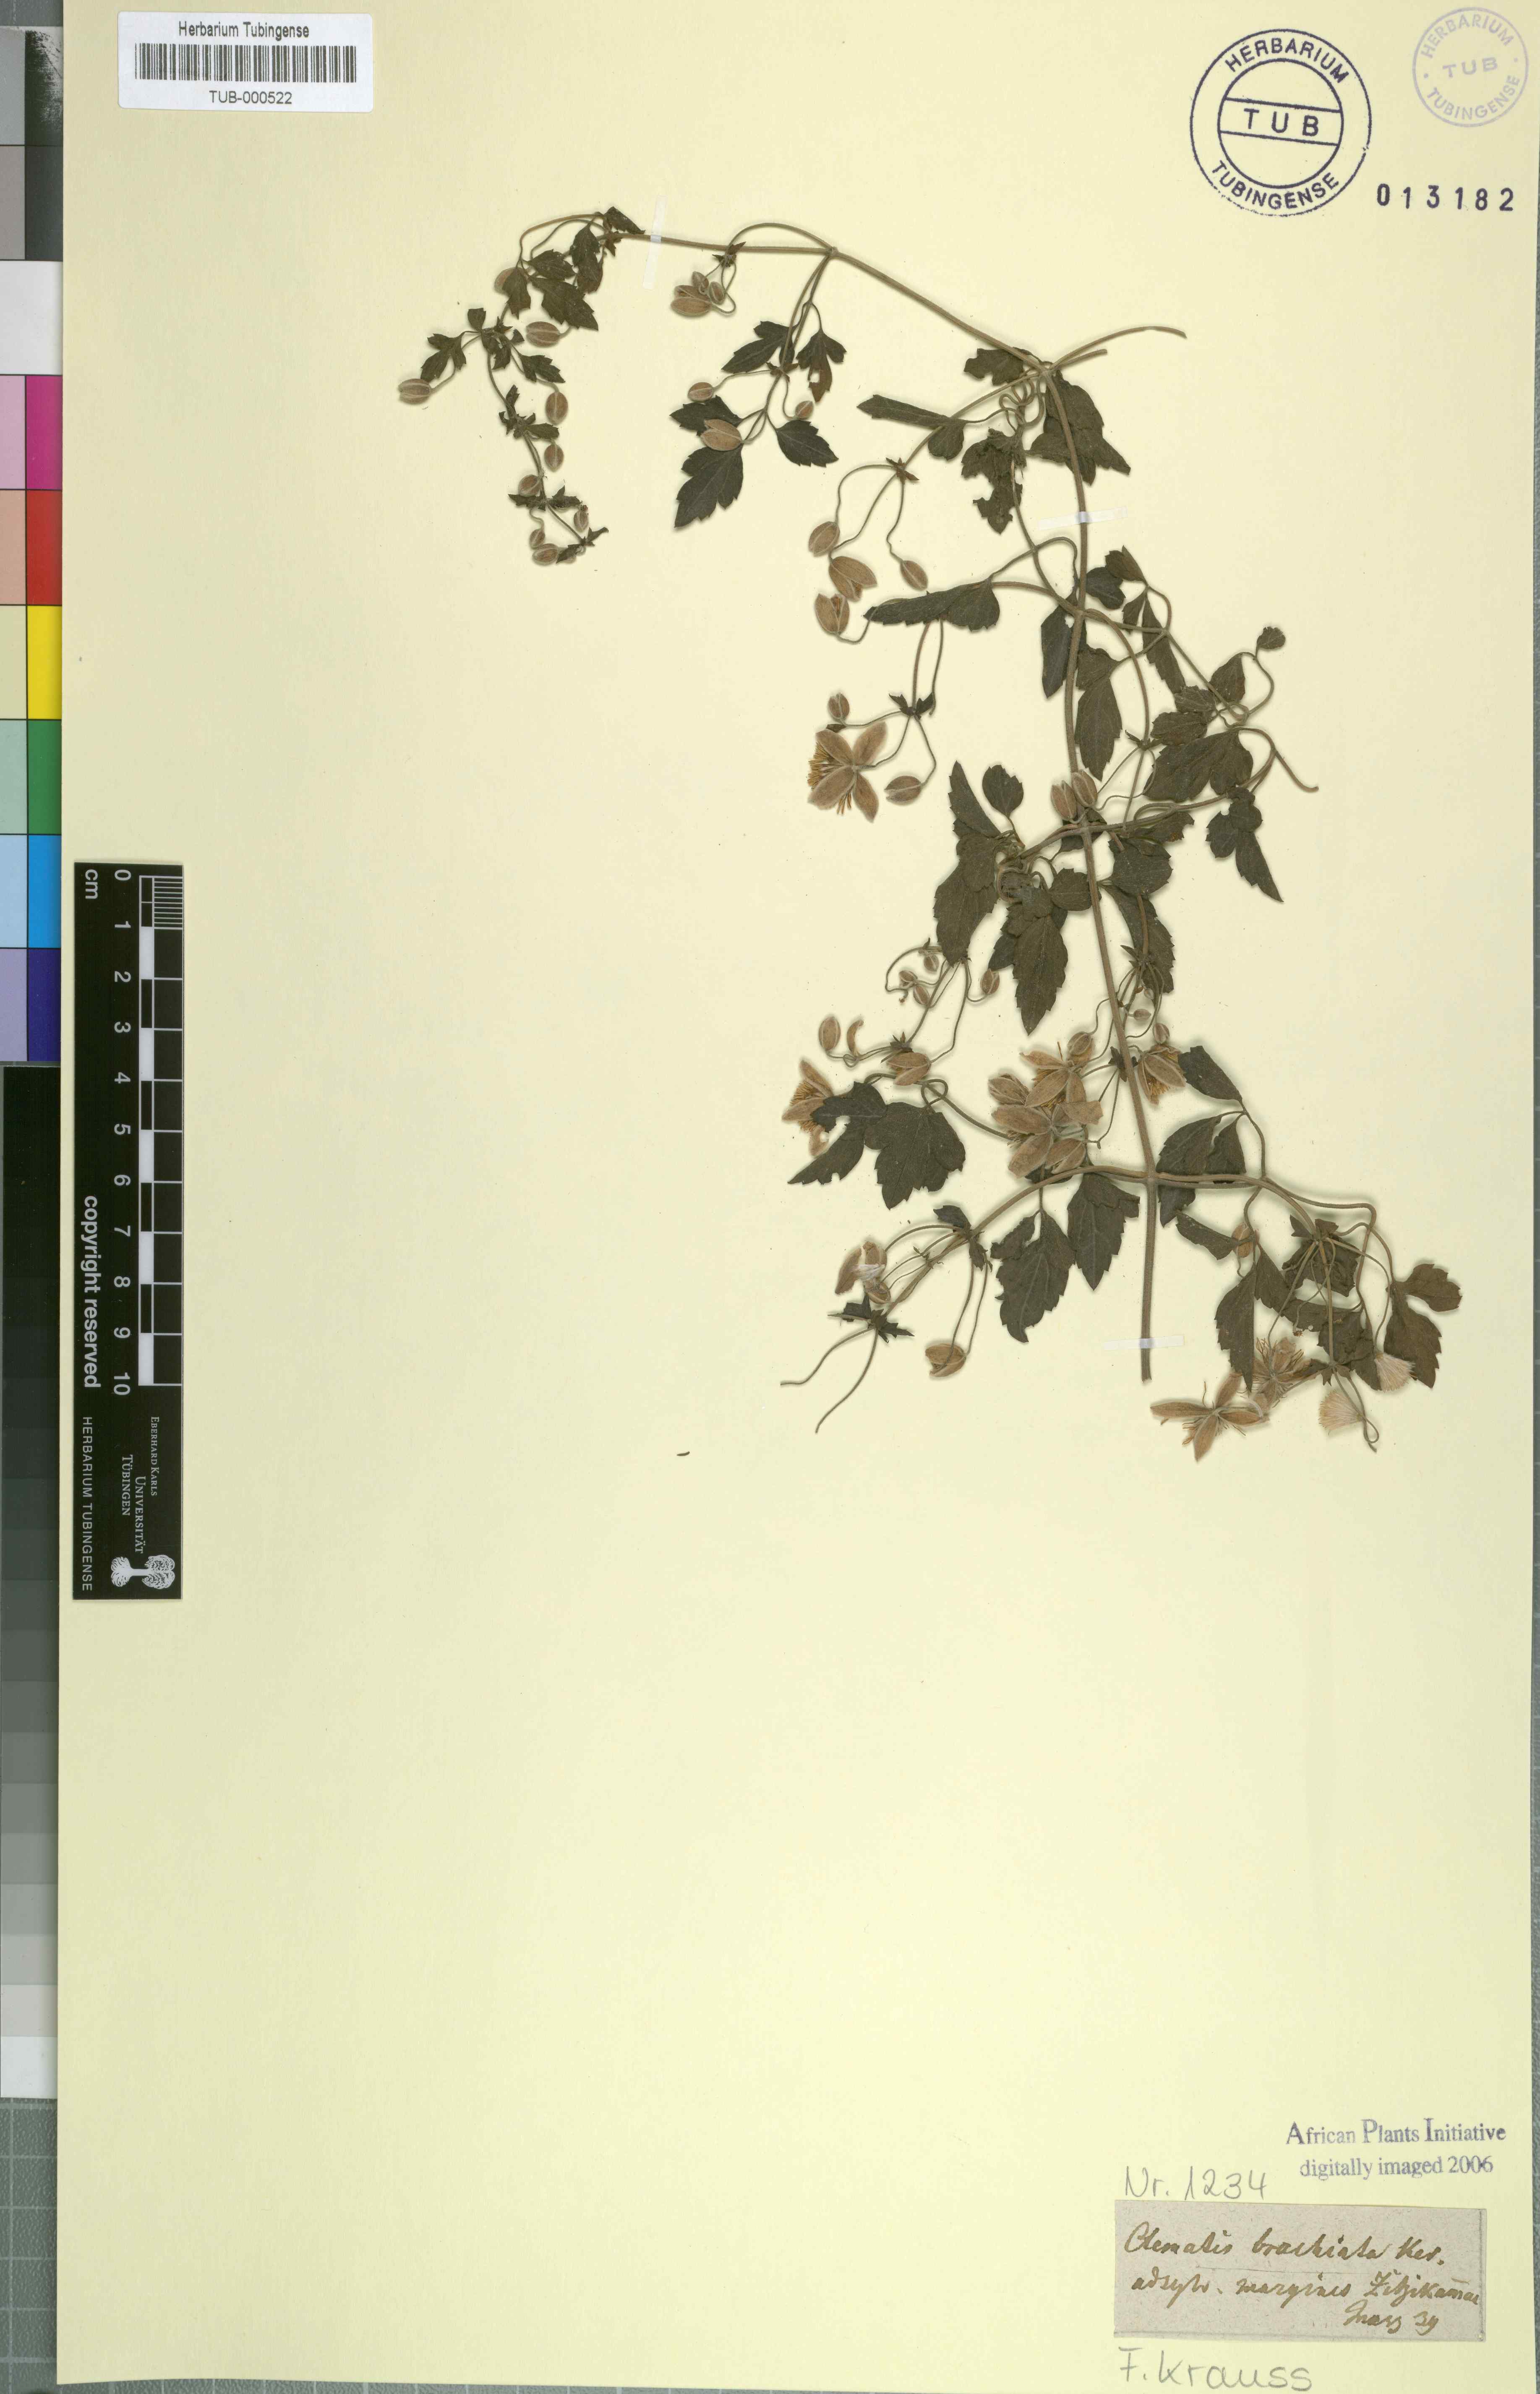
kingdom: Plantae
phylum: Tracheophyta
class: Magnoliopsida
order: Ranunculales
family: Ranunculaceae
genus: Clematis
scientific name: Clematis brachiata
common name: Traveler's-joy
